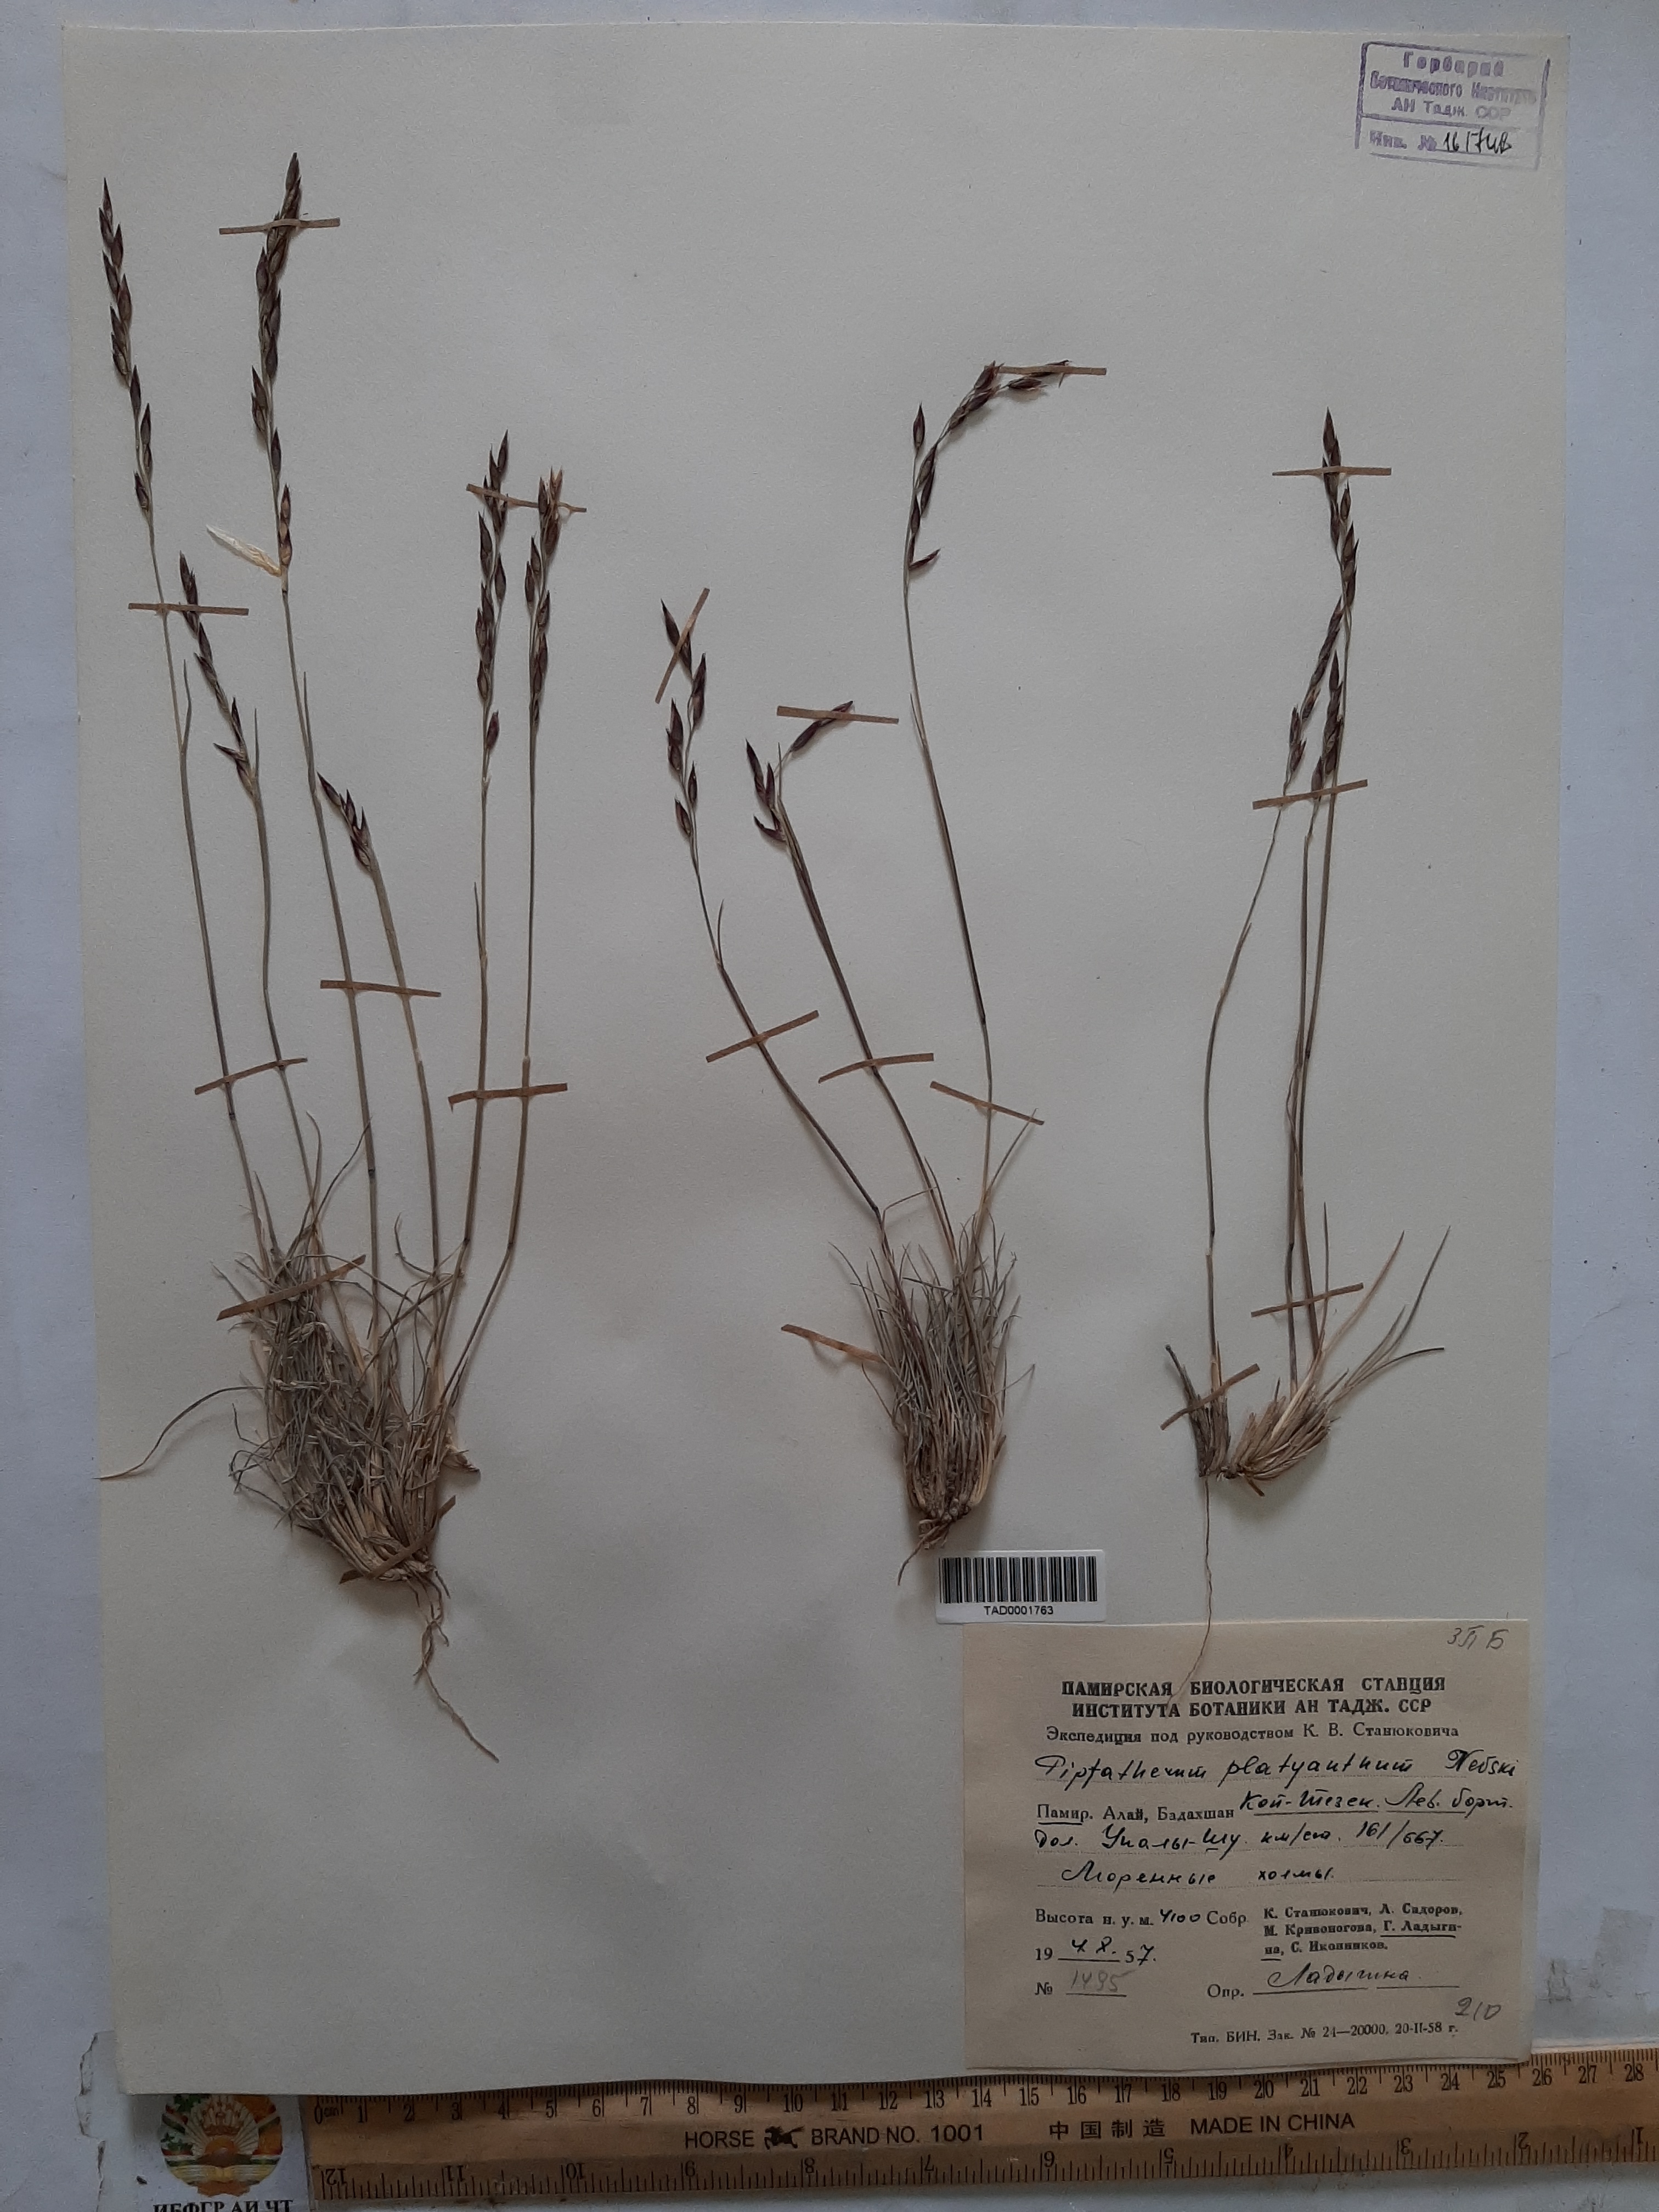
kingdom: Plantae
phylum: Tracheophyta
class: Liliopsida
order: Poales
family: Poaceae
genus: Piptatherum
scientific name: Piptatherum platyanthum
